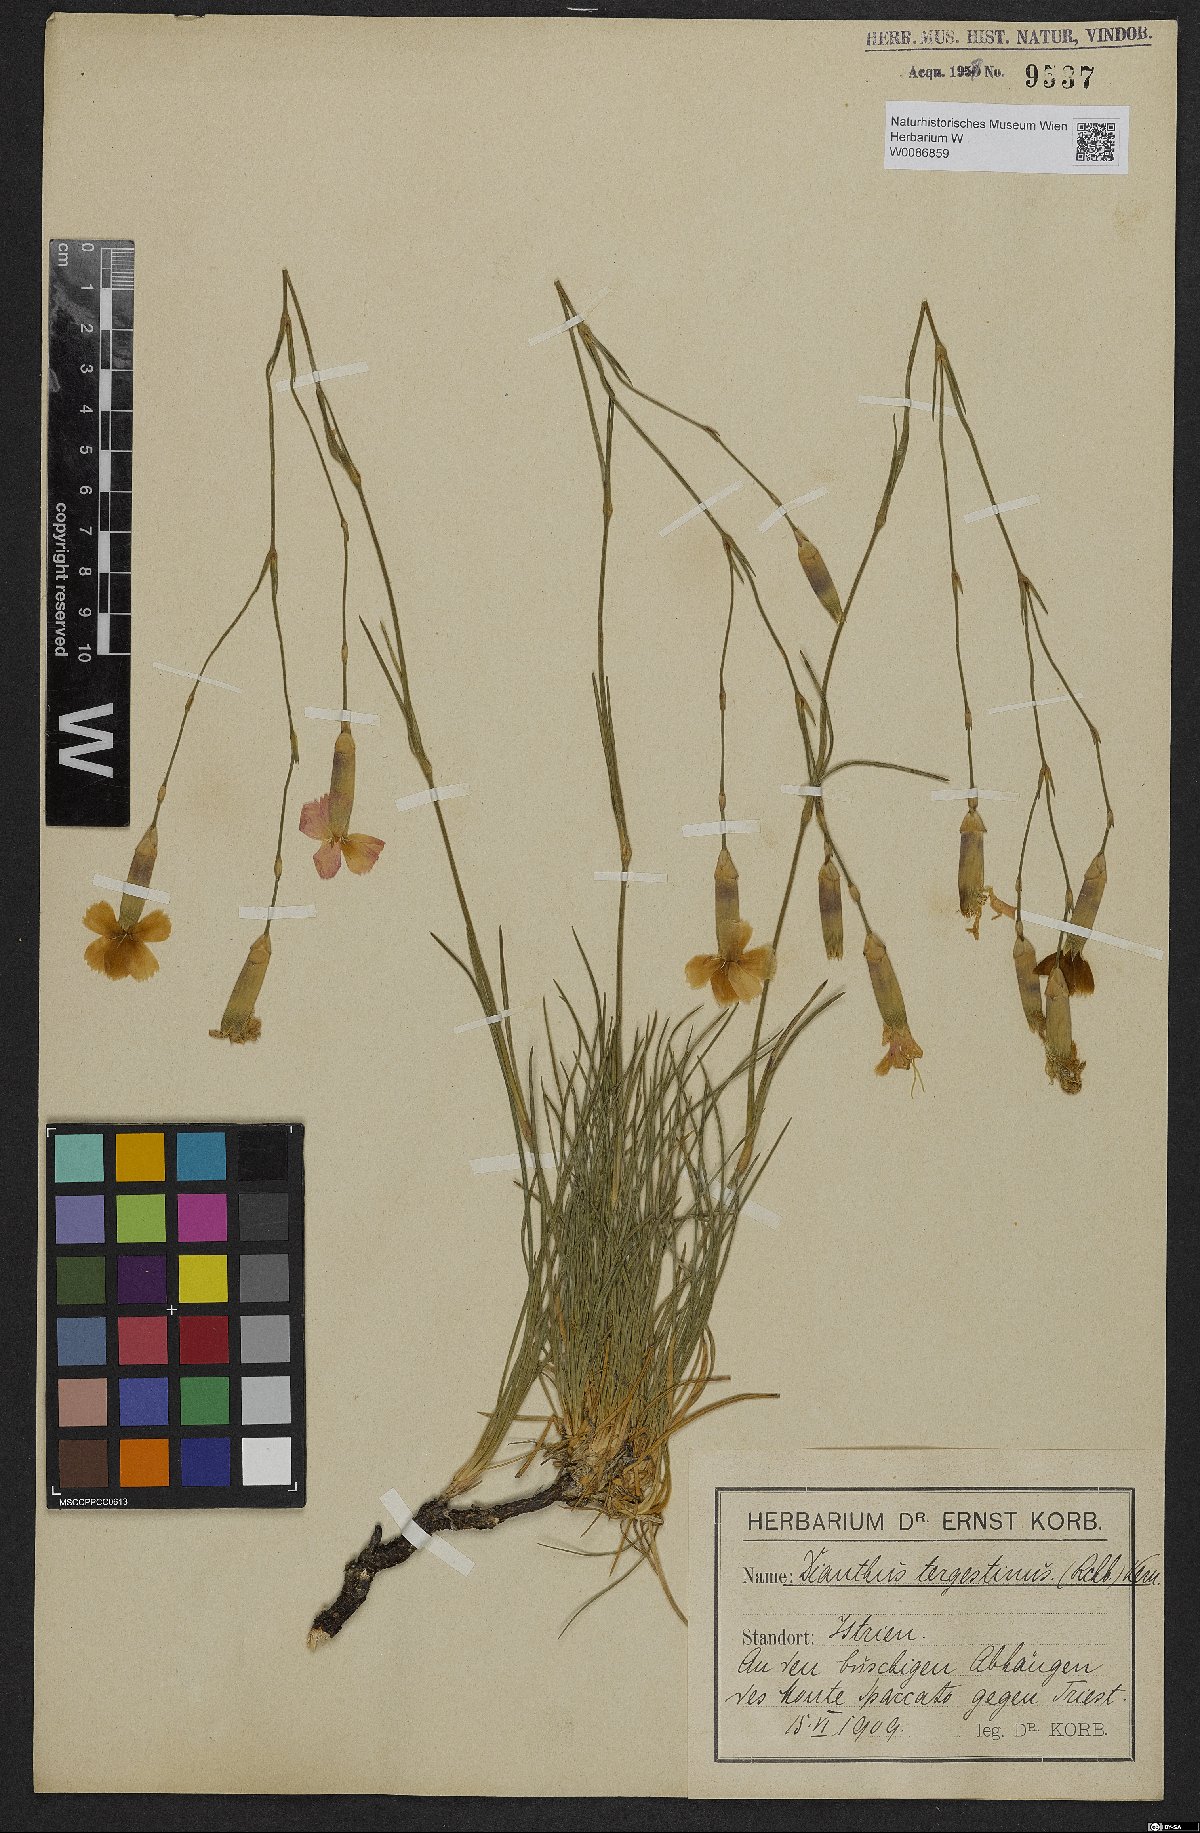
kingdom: Plantae
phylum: Tracheophyta
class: Magnoliopsida
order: Caryophyllales
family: Caryophyllaceae
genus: Dianthus
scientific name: Dianthus sylvestris
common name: Wood pink
